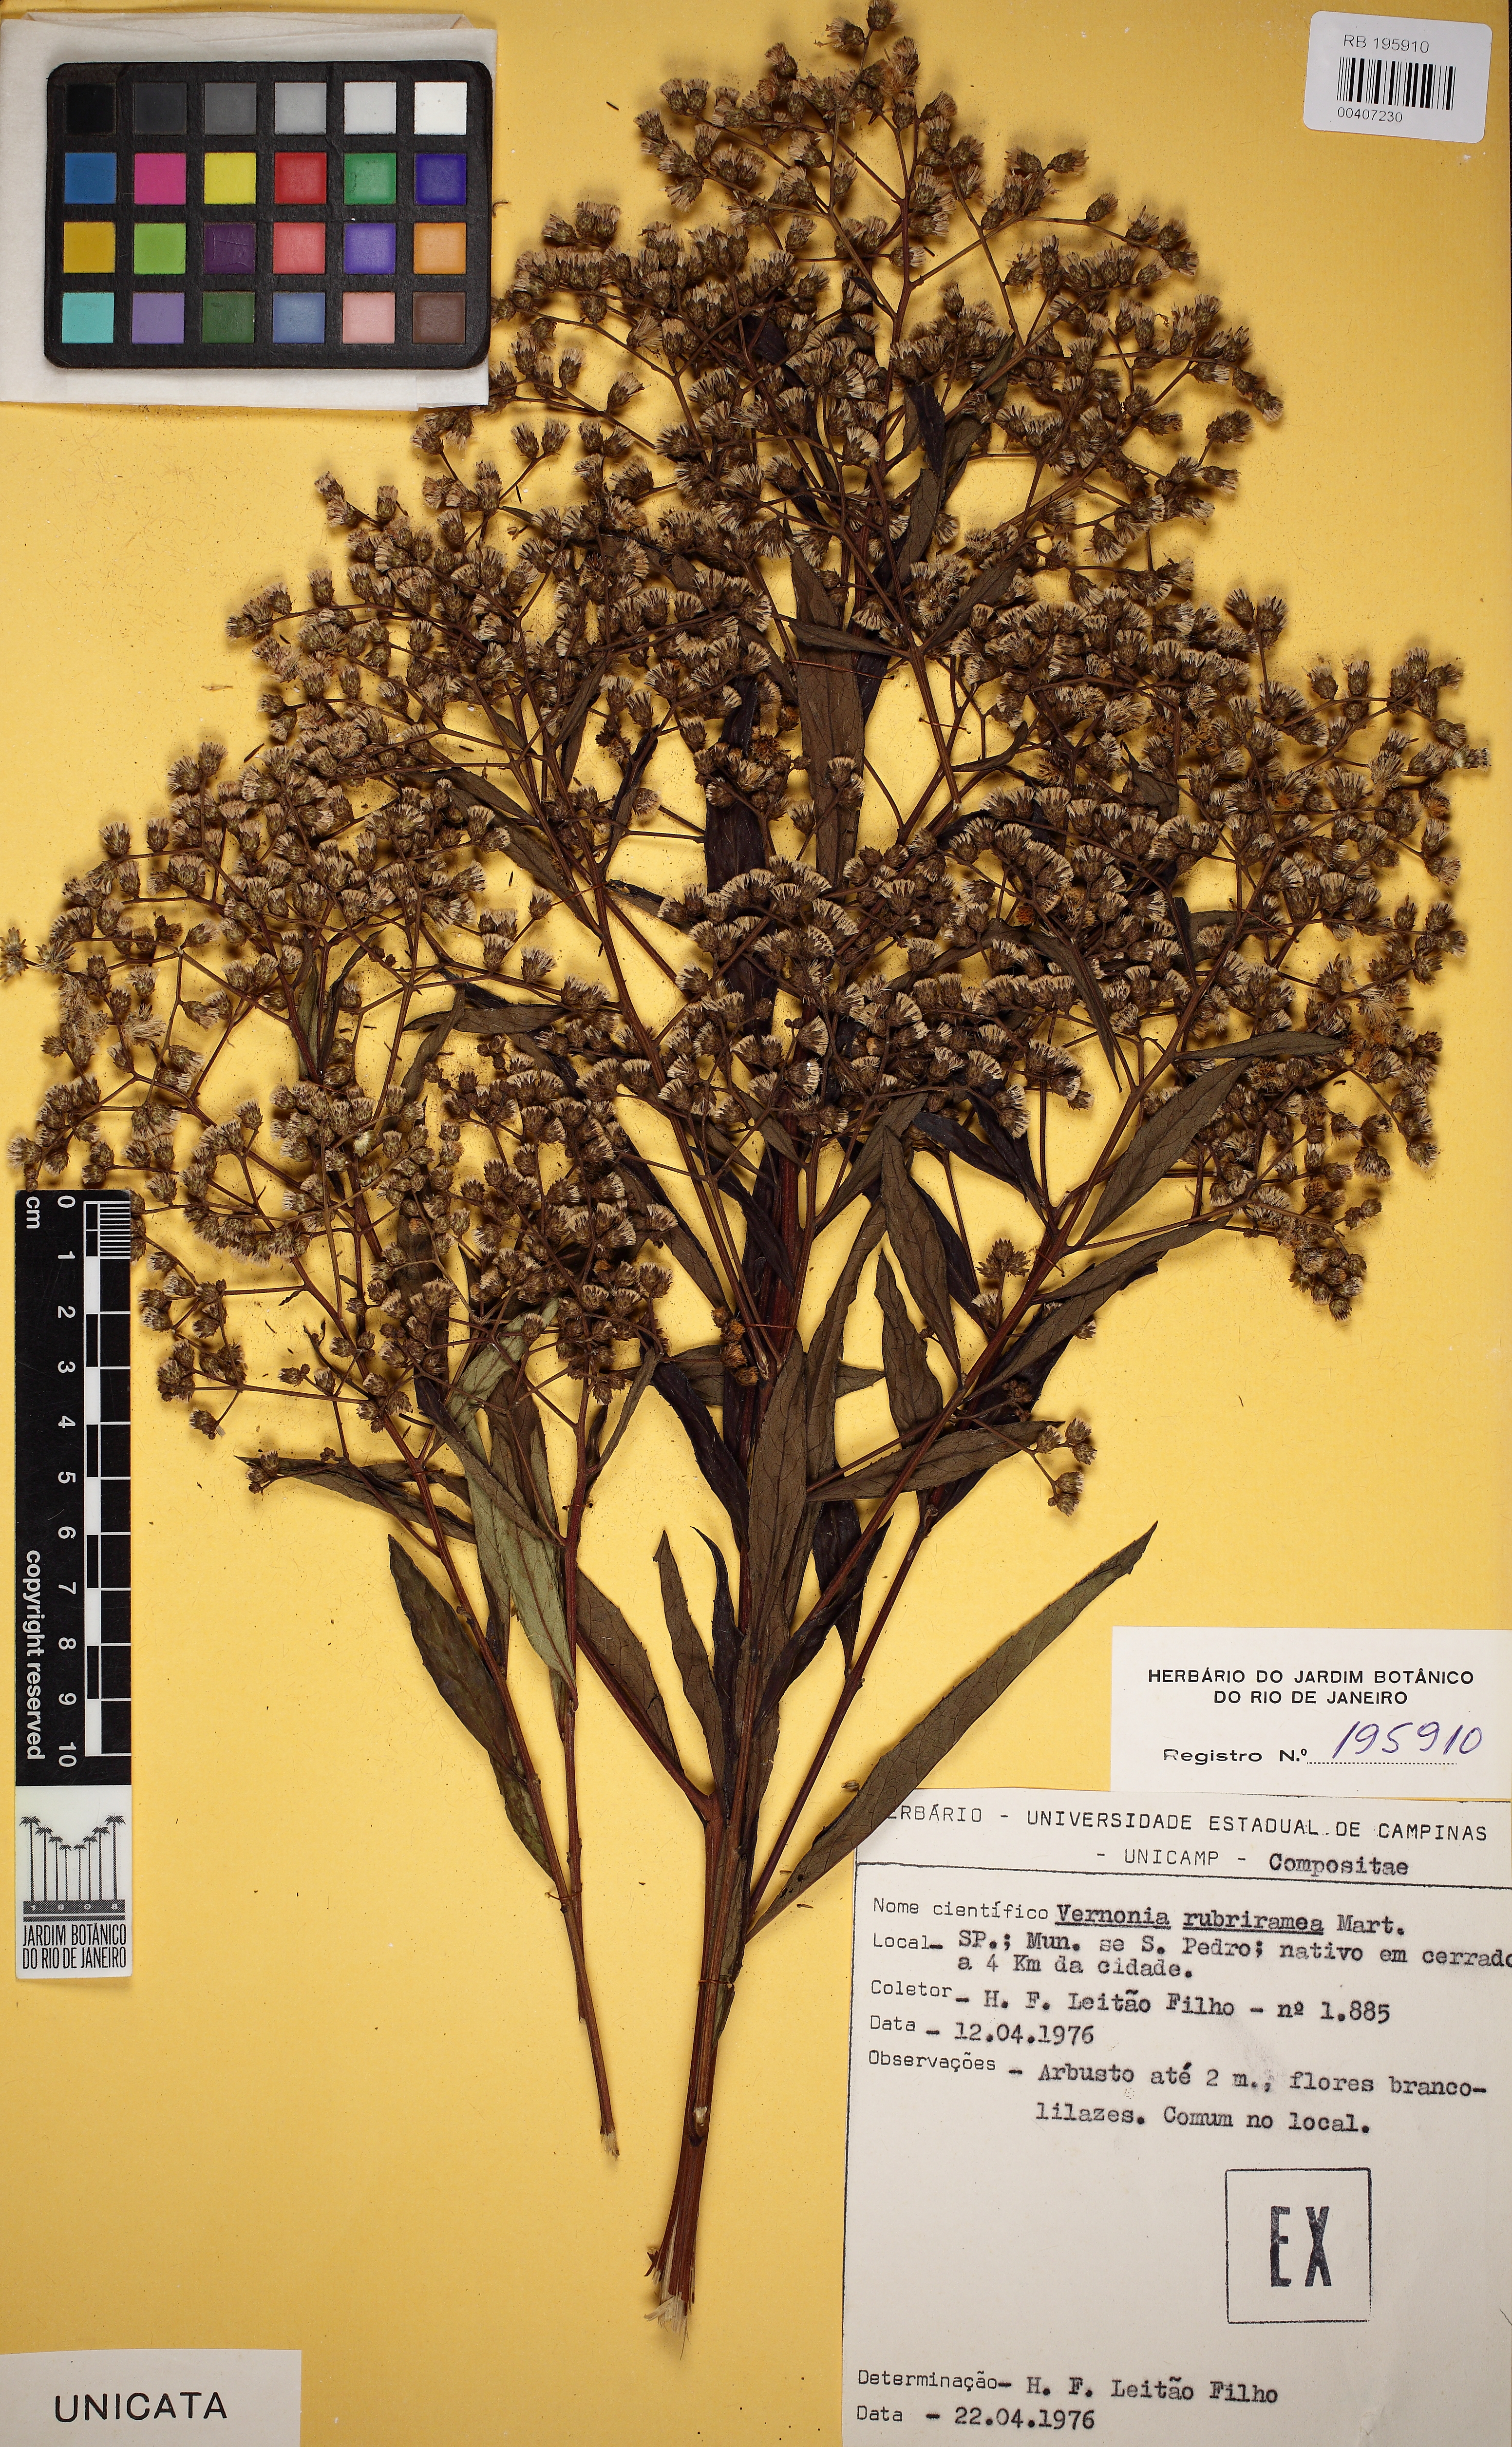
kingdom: Plantae
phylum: Tracheophyta
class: Magnoliopsida
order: Asterales
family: Asteraceae
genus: Vernonanthura
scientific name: Vernonanthura rubriramea
